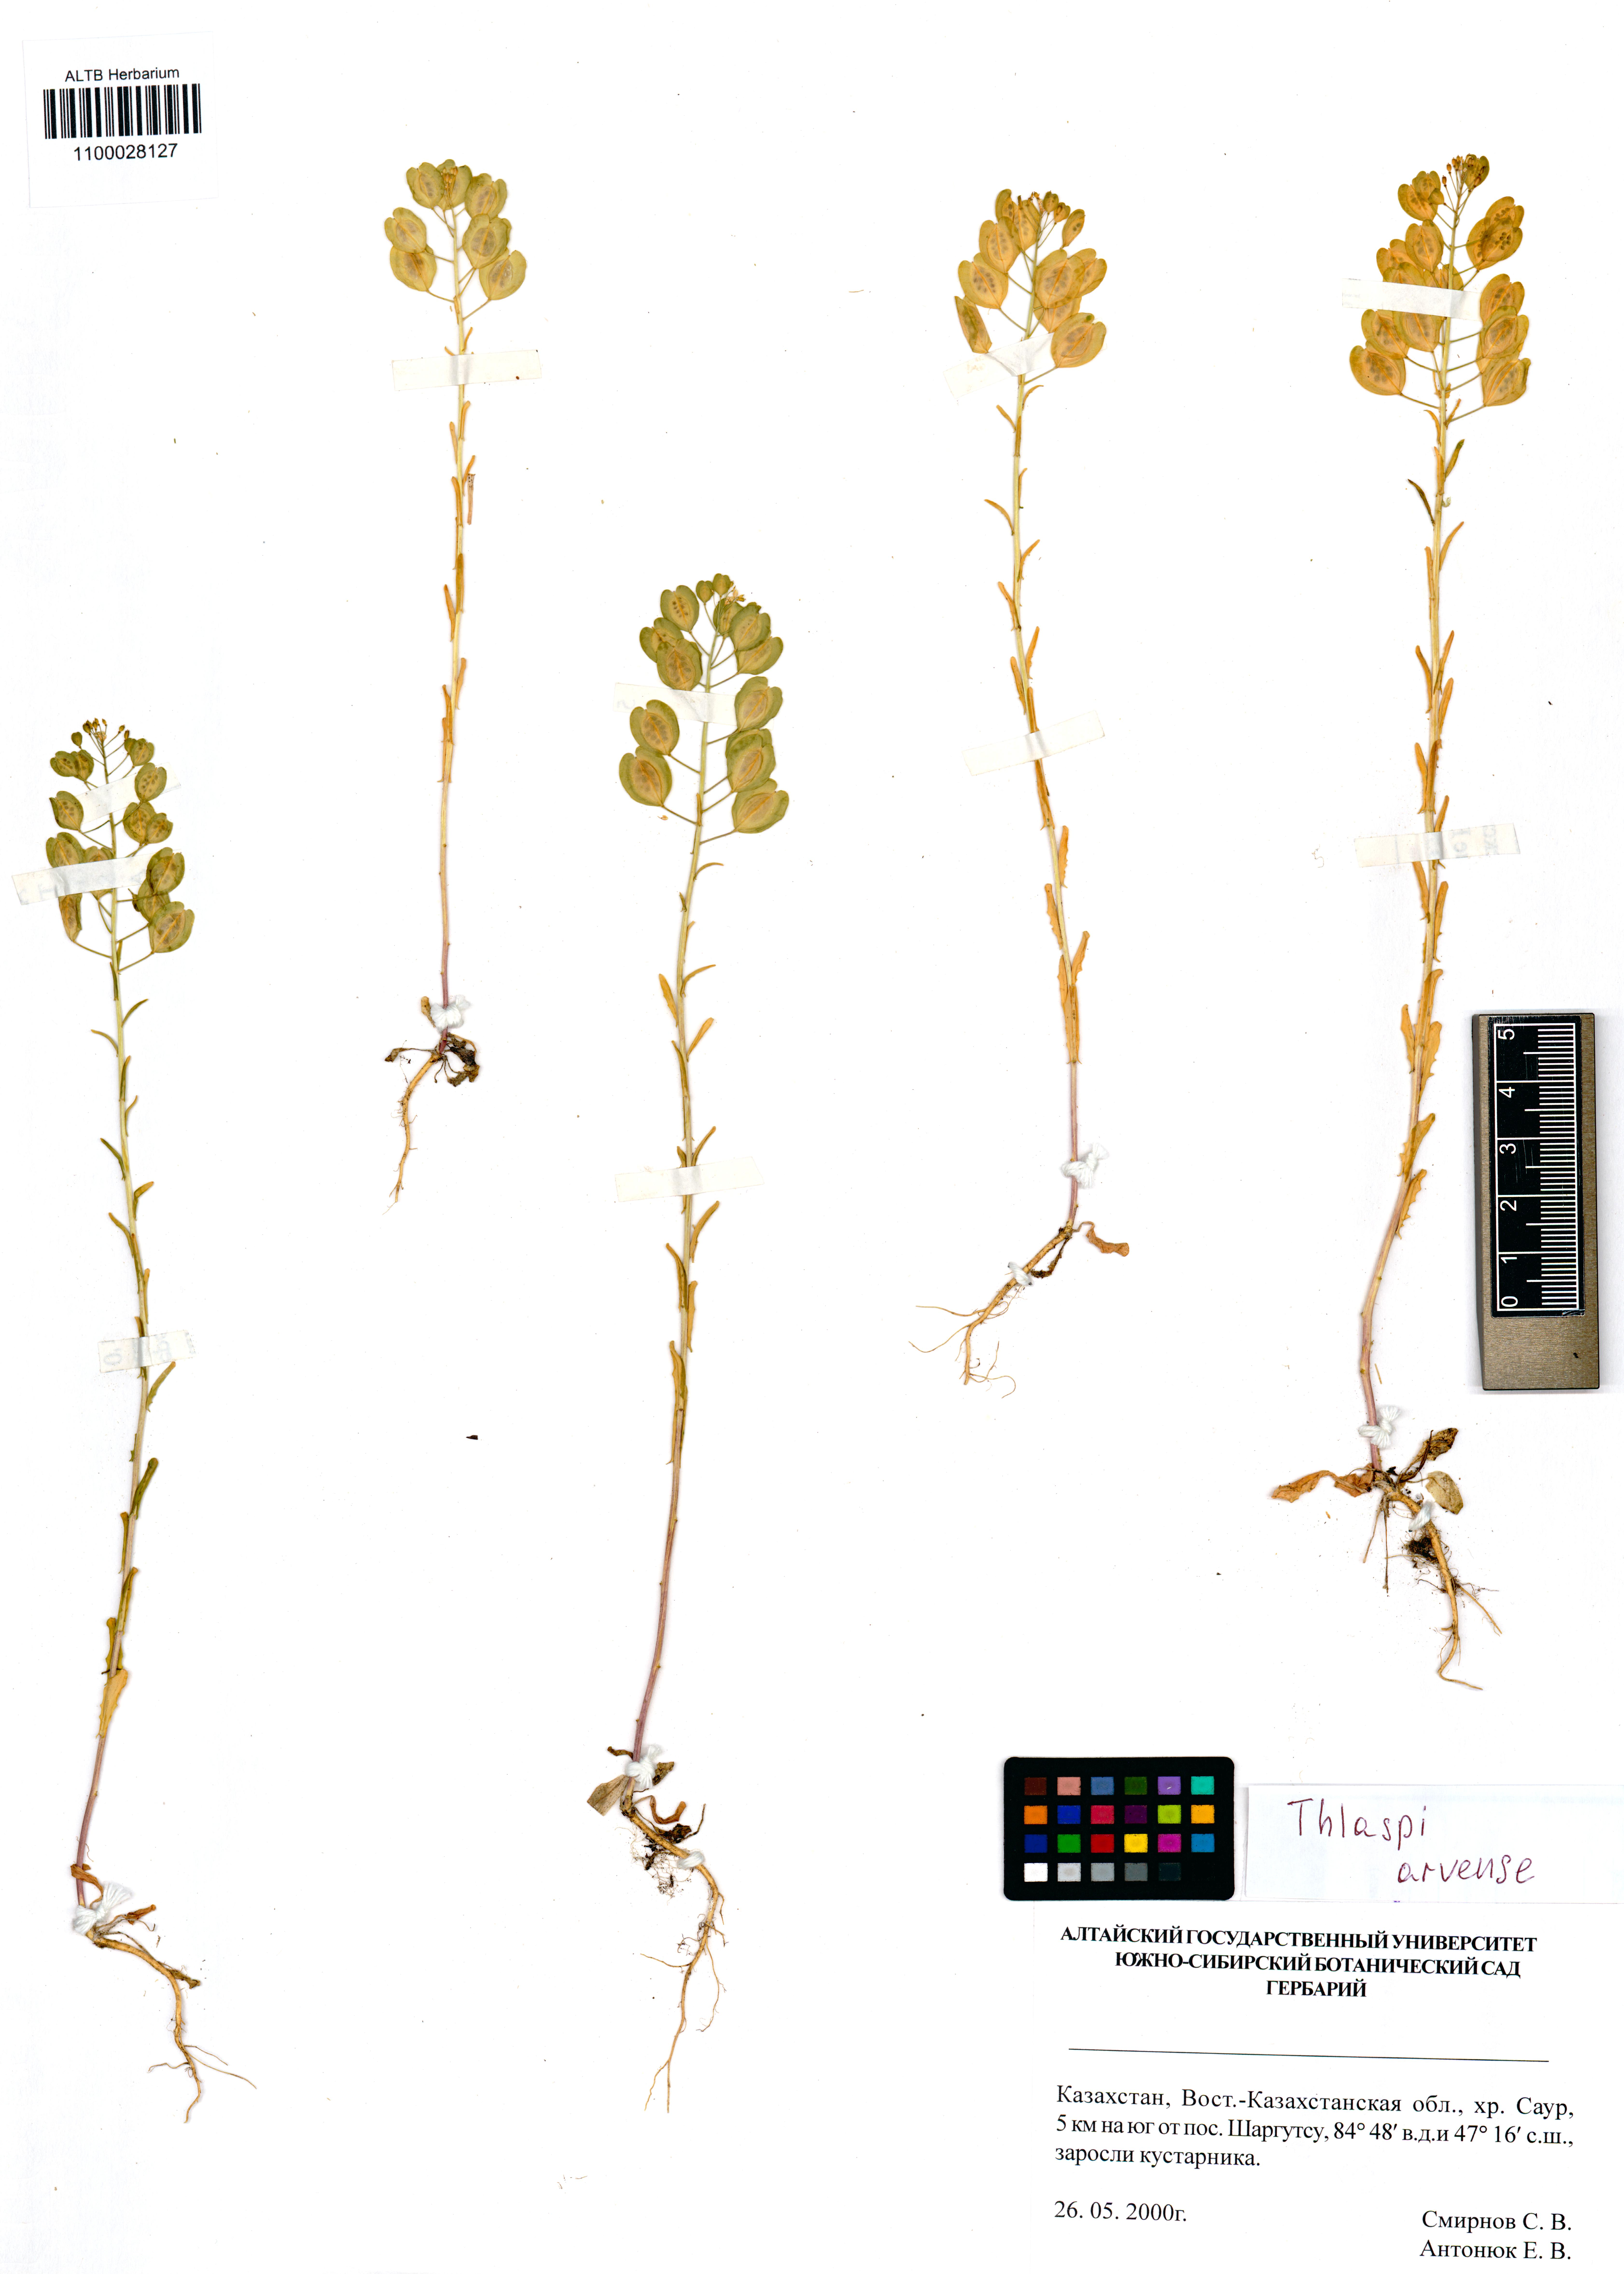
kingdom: Plantae
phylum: Tracheophyta
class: Magnoliopsida
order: Brassicales
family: Brassicaceae
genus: Thlaspi
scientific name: Thlaspi arvense
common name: Field pennycress
